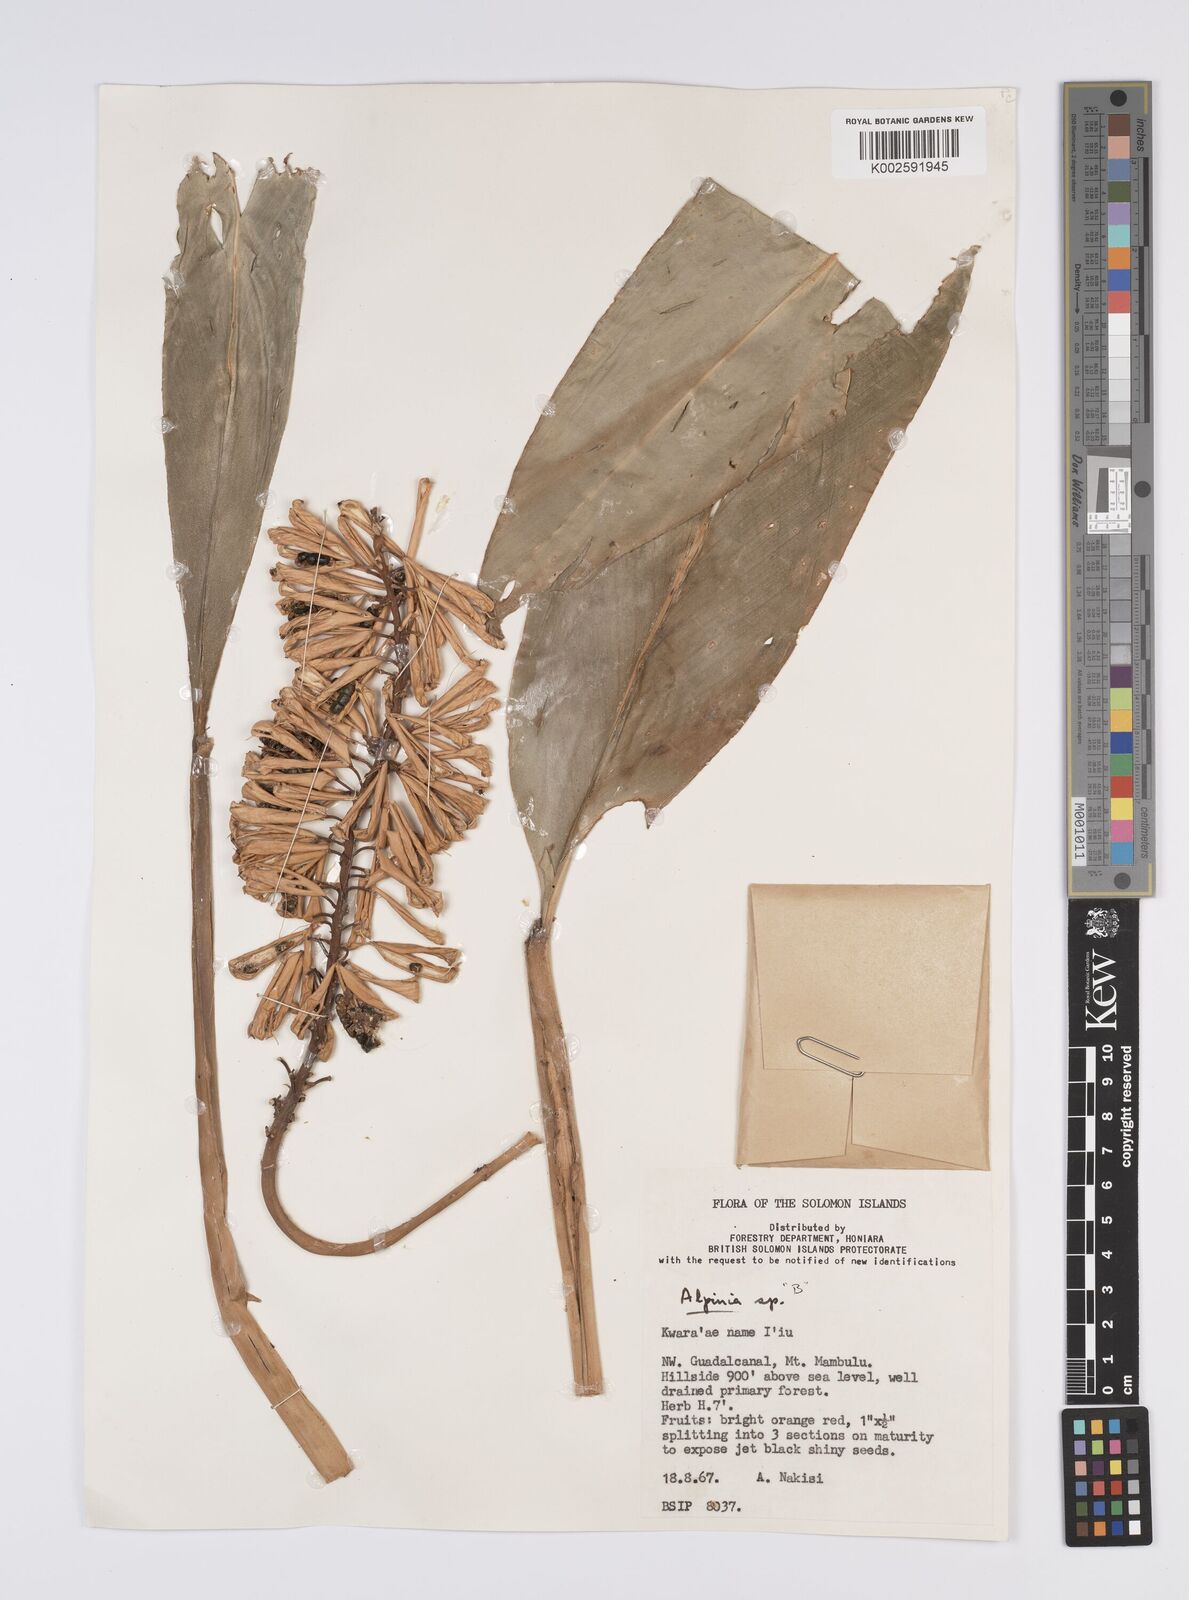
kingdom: Plantae
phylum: Tracheophyta
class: Liliopsida
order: Zingiberales
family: Zingiberaceae
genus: Alpinia
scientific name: Alpinia
